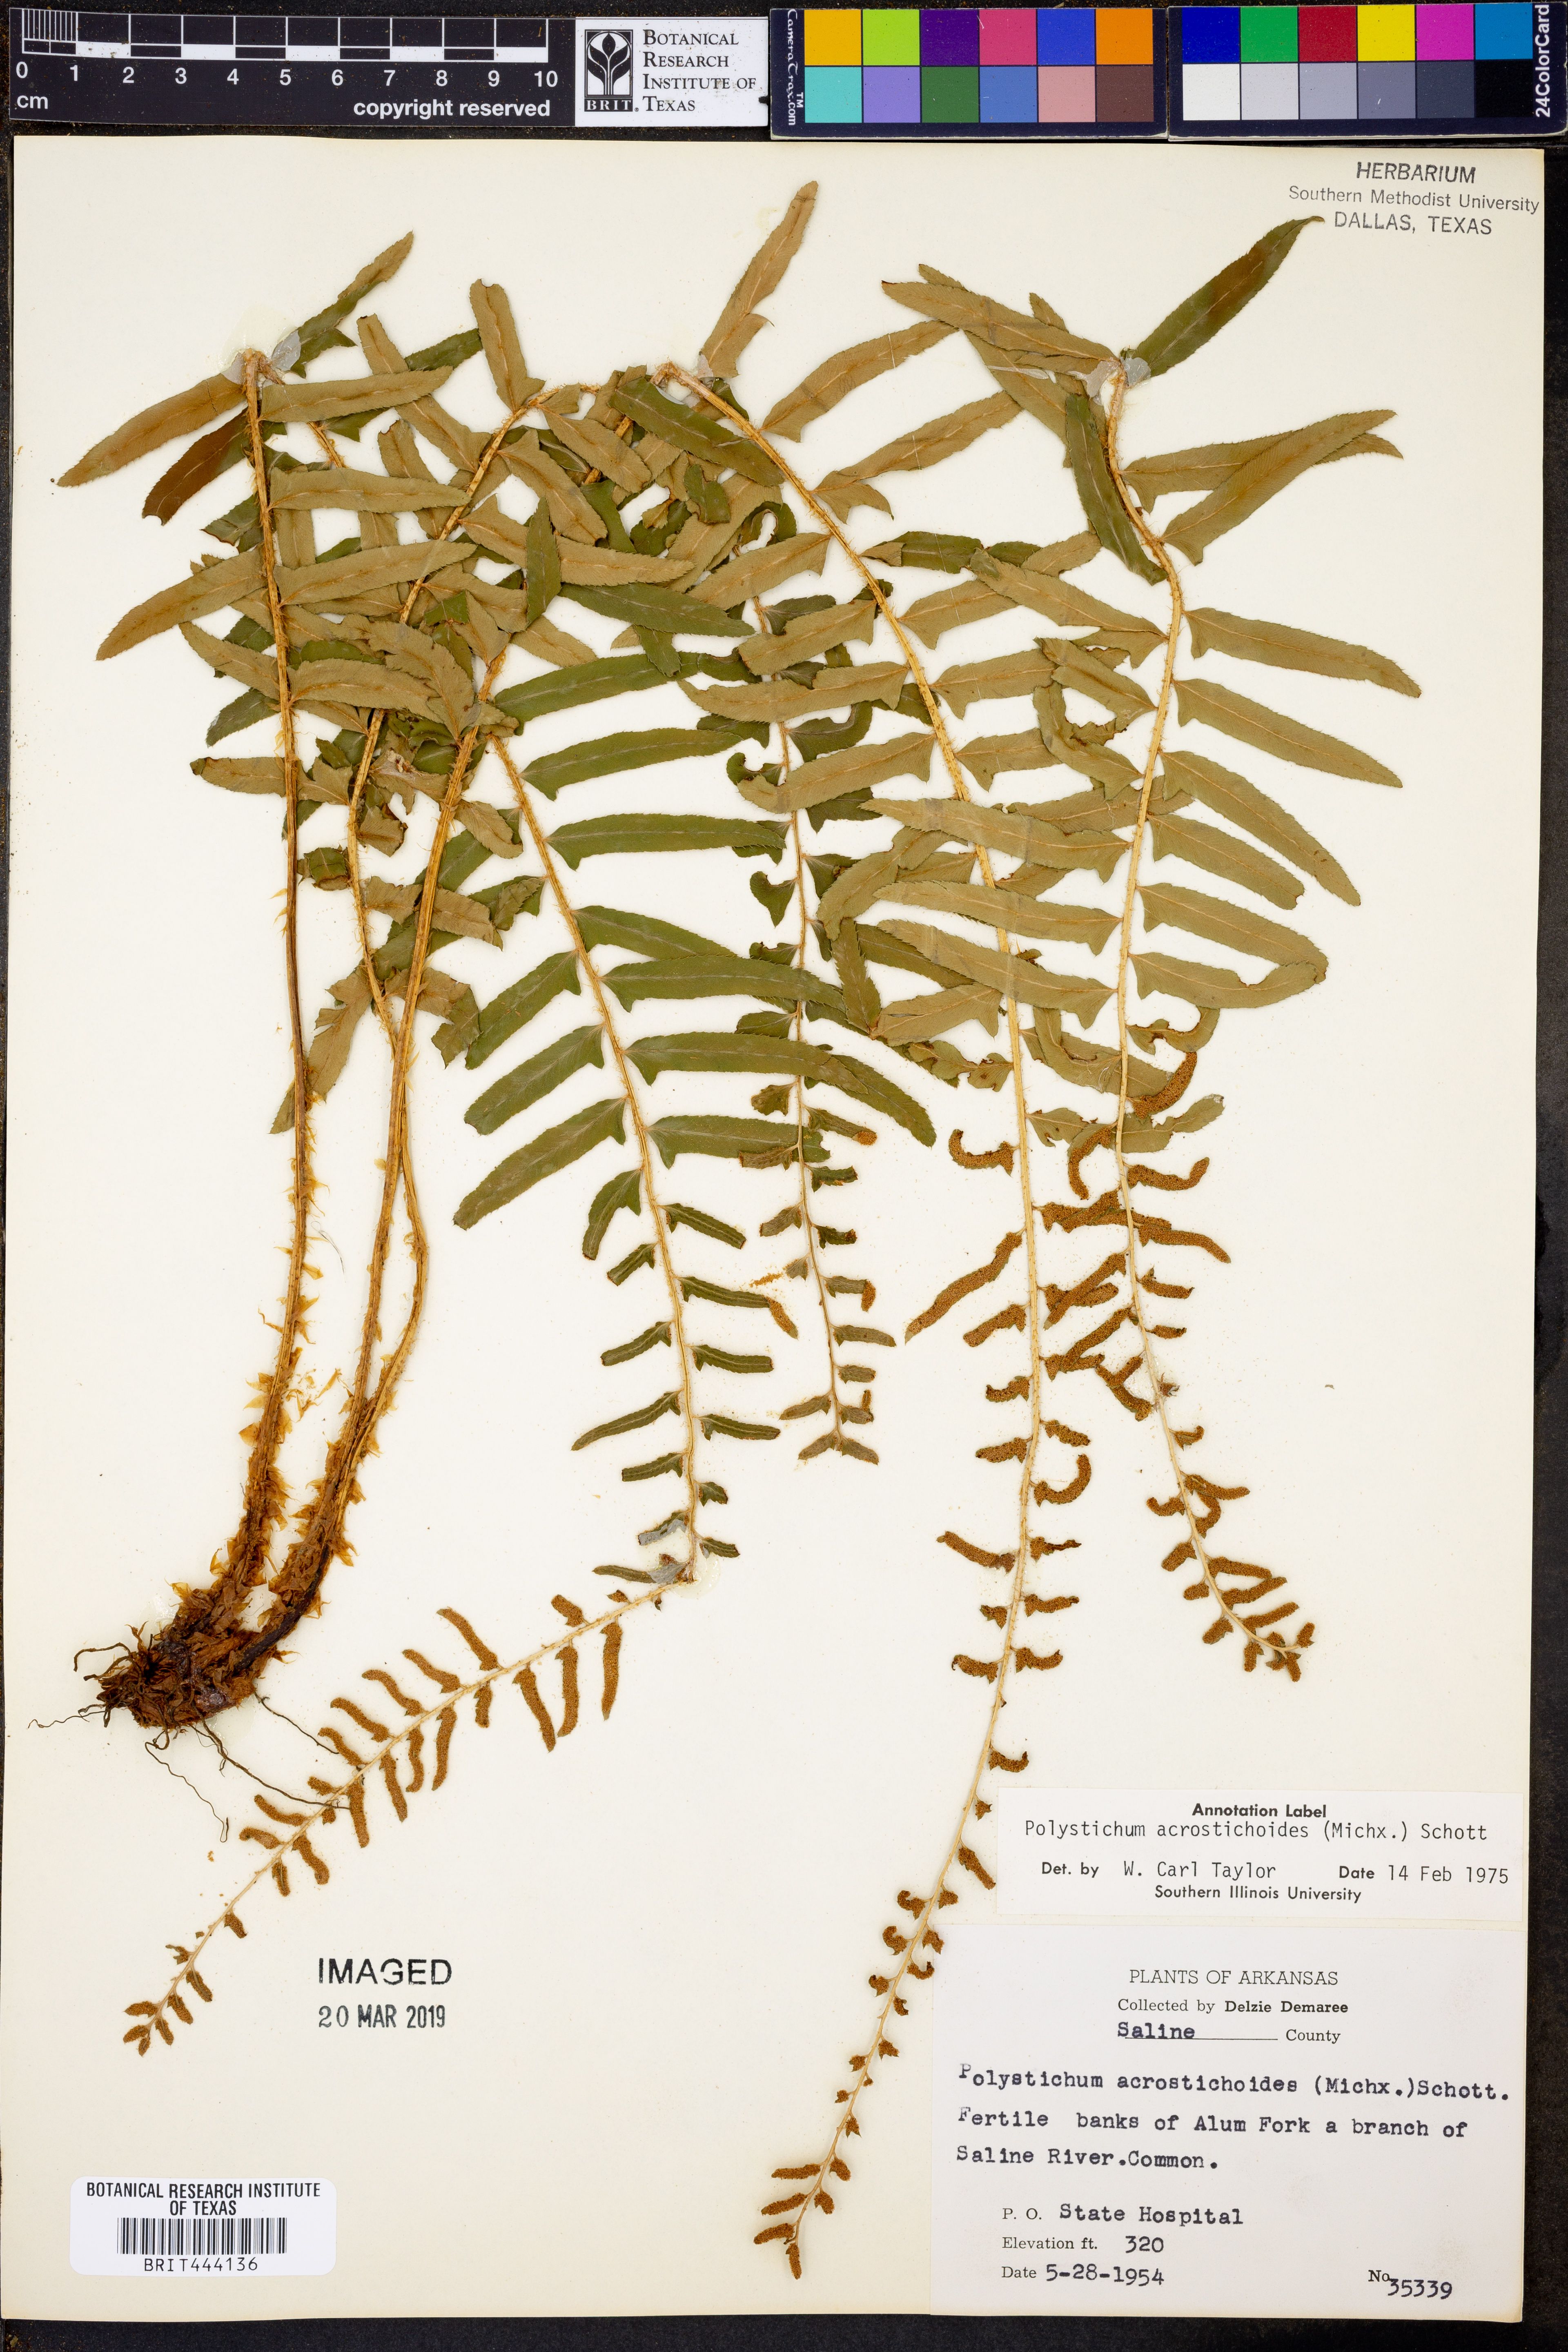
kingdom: Plantae
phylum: Tracheophyta
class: Polypodiopsida
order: Polypodiales
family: Dryopteridaceae
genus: Polystichum
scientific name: Polystichum acrostichoides
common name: Christmas fern
